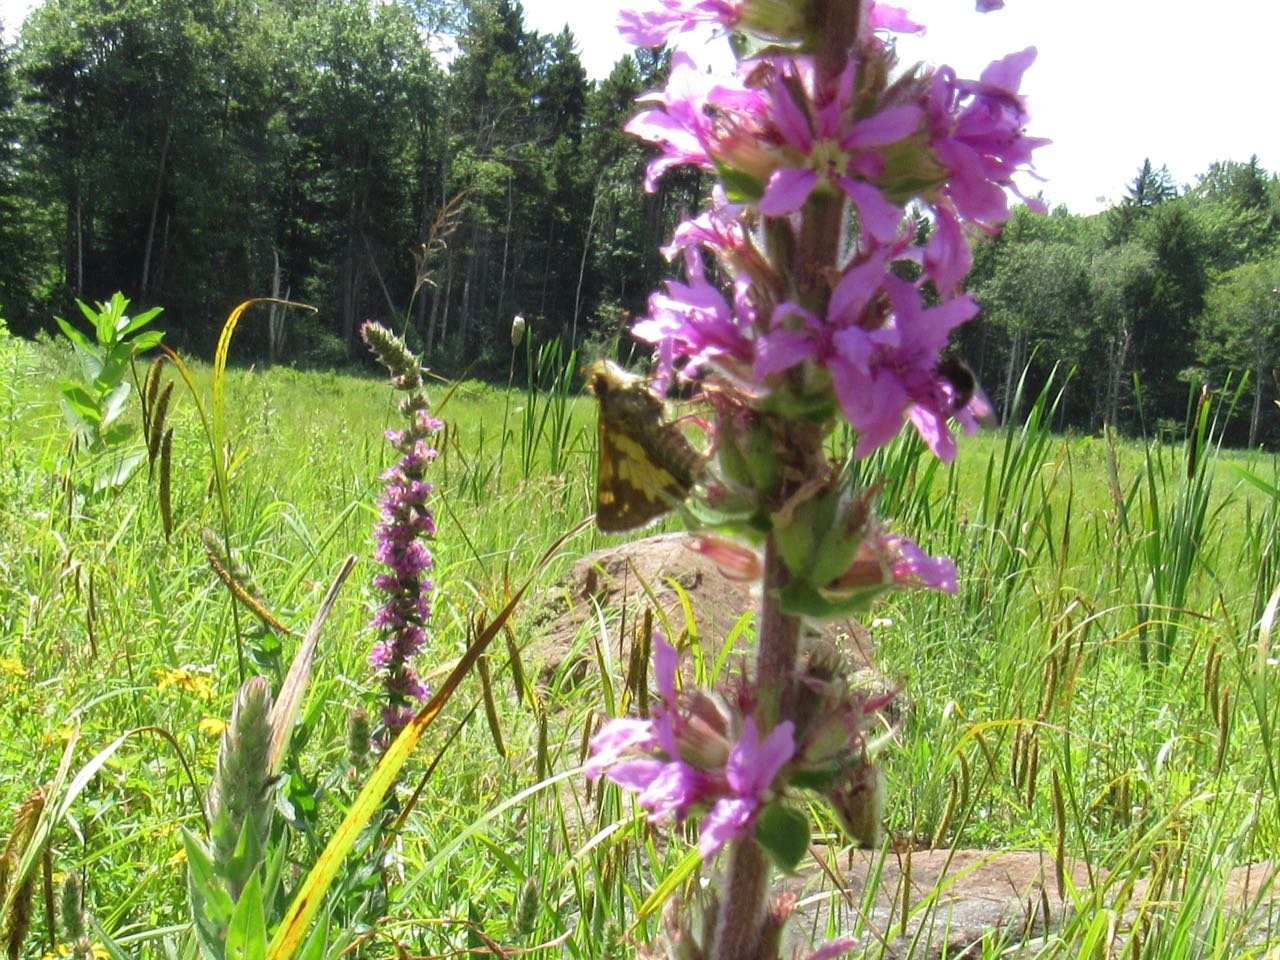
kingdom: Animalia
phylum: Arthropoda
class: Insecta
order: Lepidoptera
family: Hesperiidae
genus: Polites
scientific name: Polites coras
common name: Peck's Skipper
